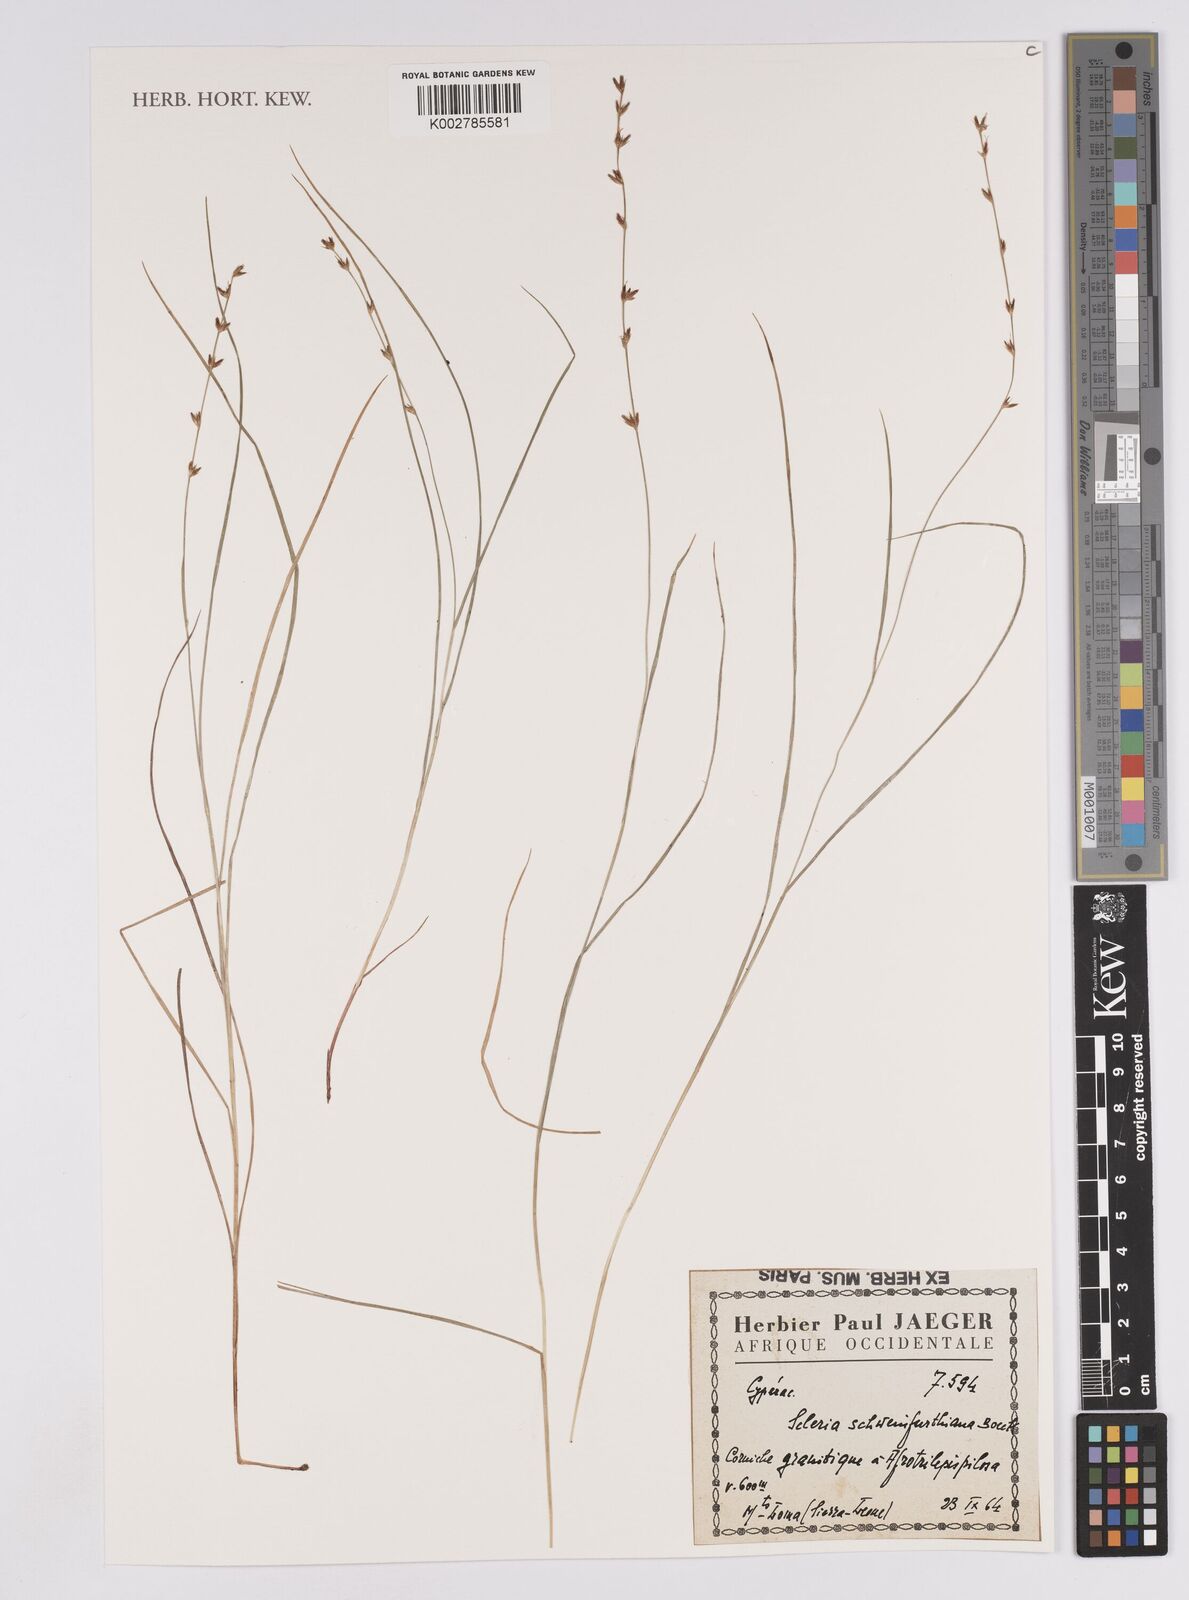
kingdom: Plantae
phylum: Tracheophyta
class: Liliopsida
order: Poales
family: Cyperaceae
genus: Scleria
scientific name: Scleria bulbifera
